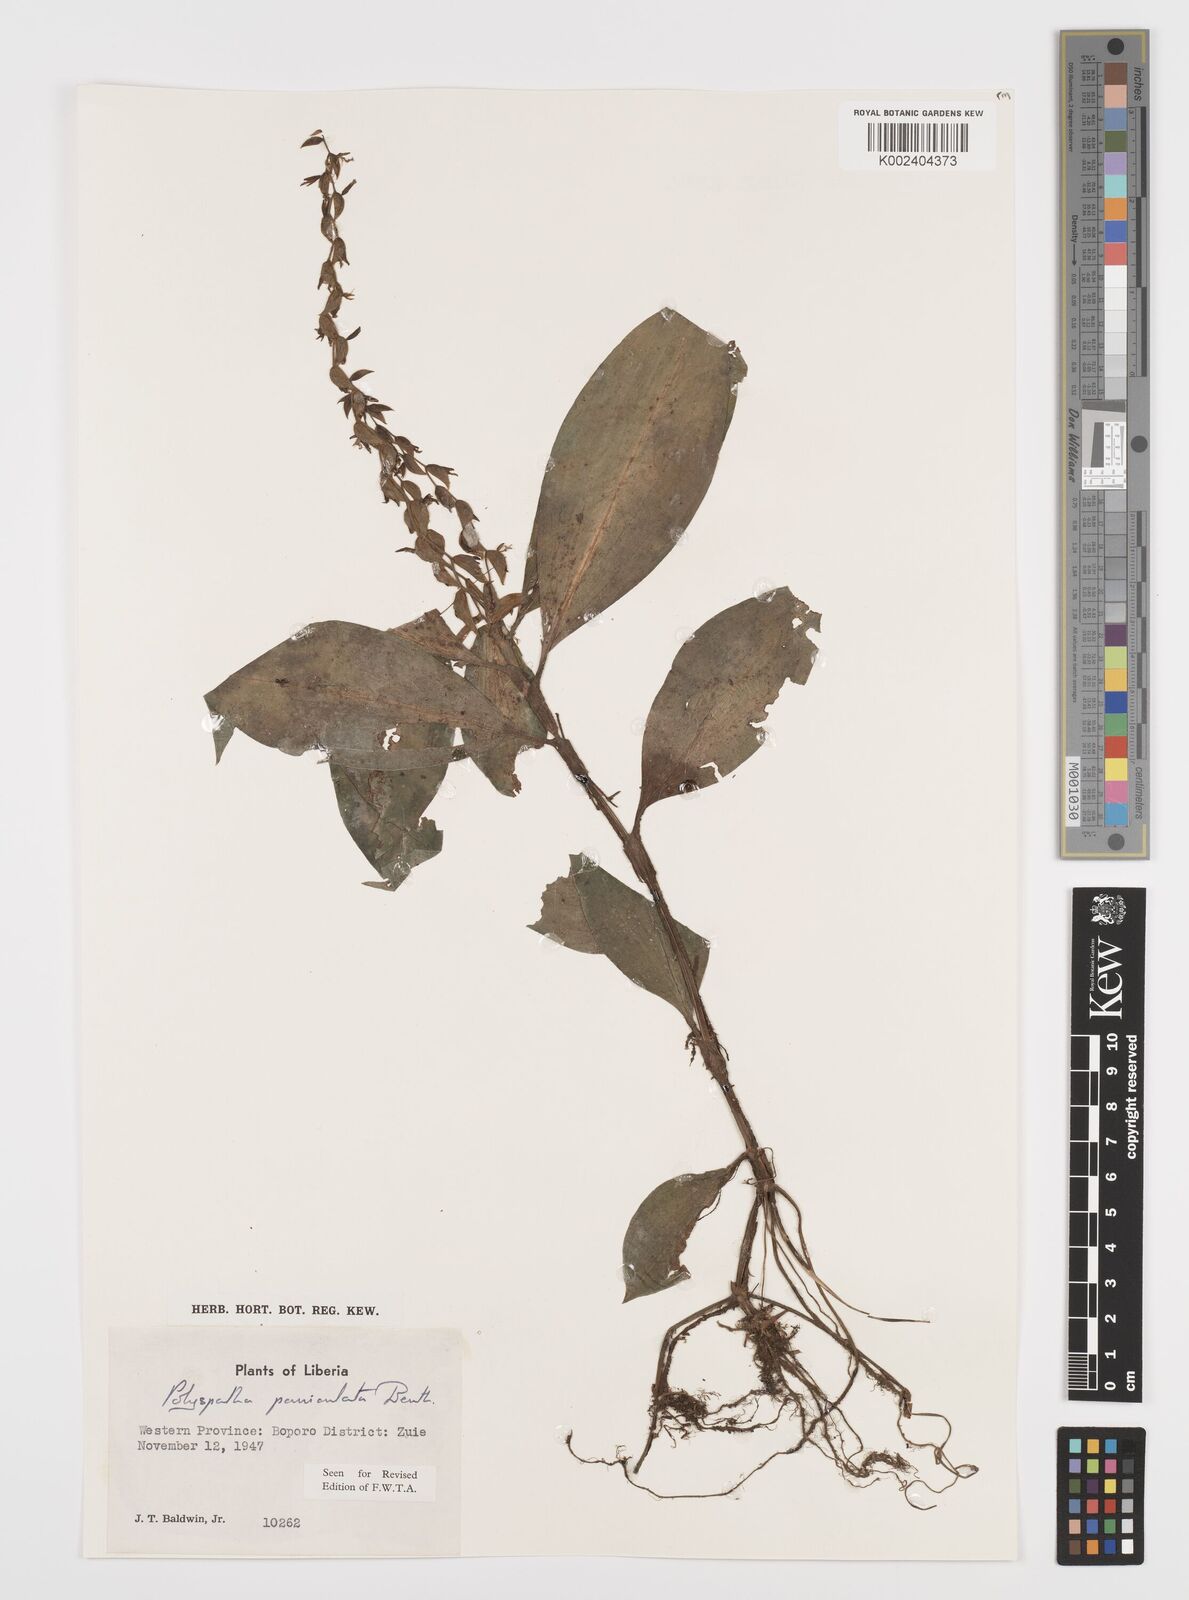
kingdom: Plantae
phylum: Tracheophyta
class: Liliopsida
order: Commelinales
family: Commelinaceae
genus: Polyspatha
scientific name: Polyspatha paniculata
